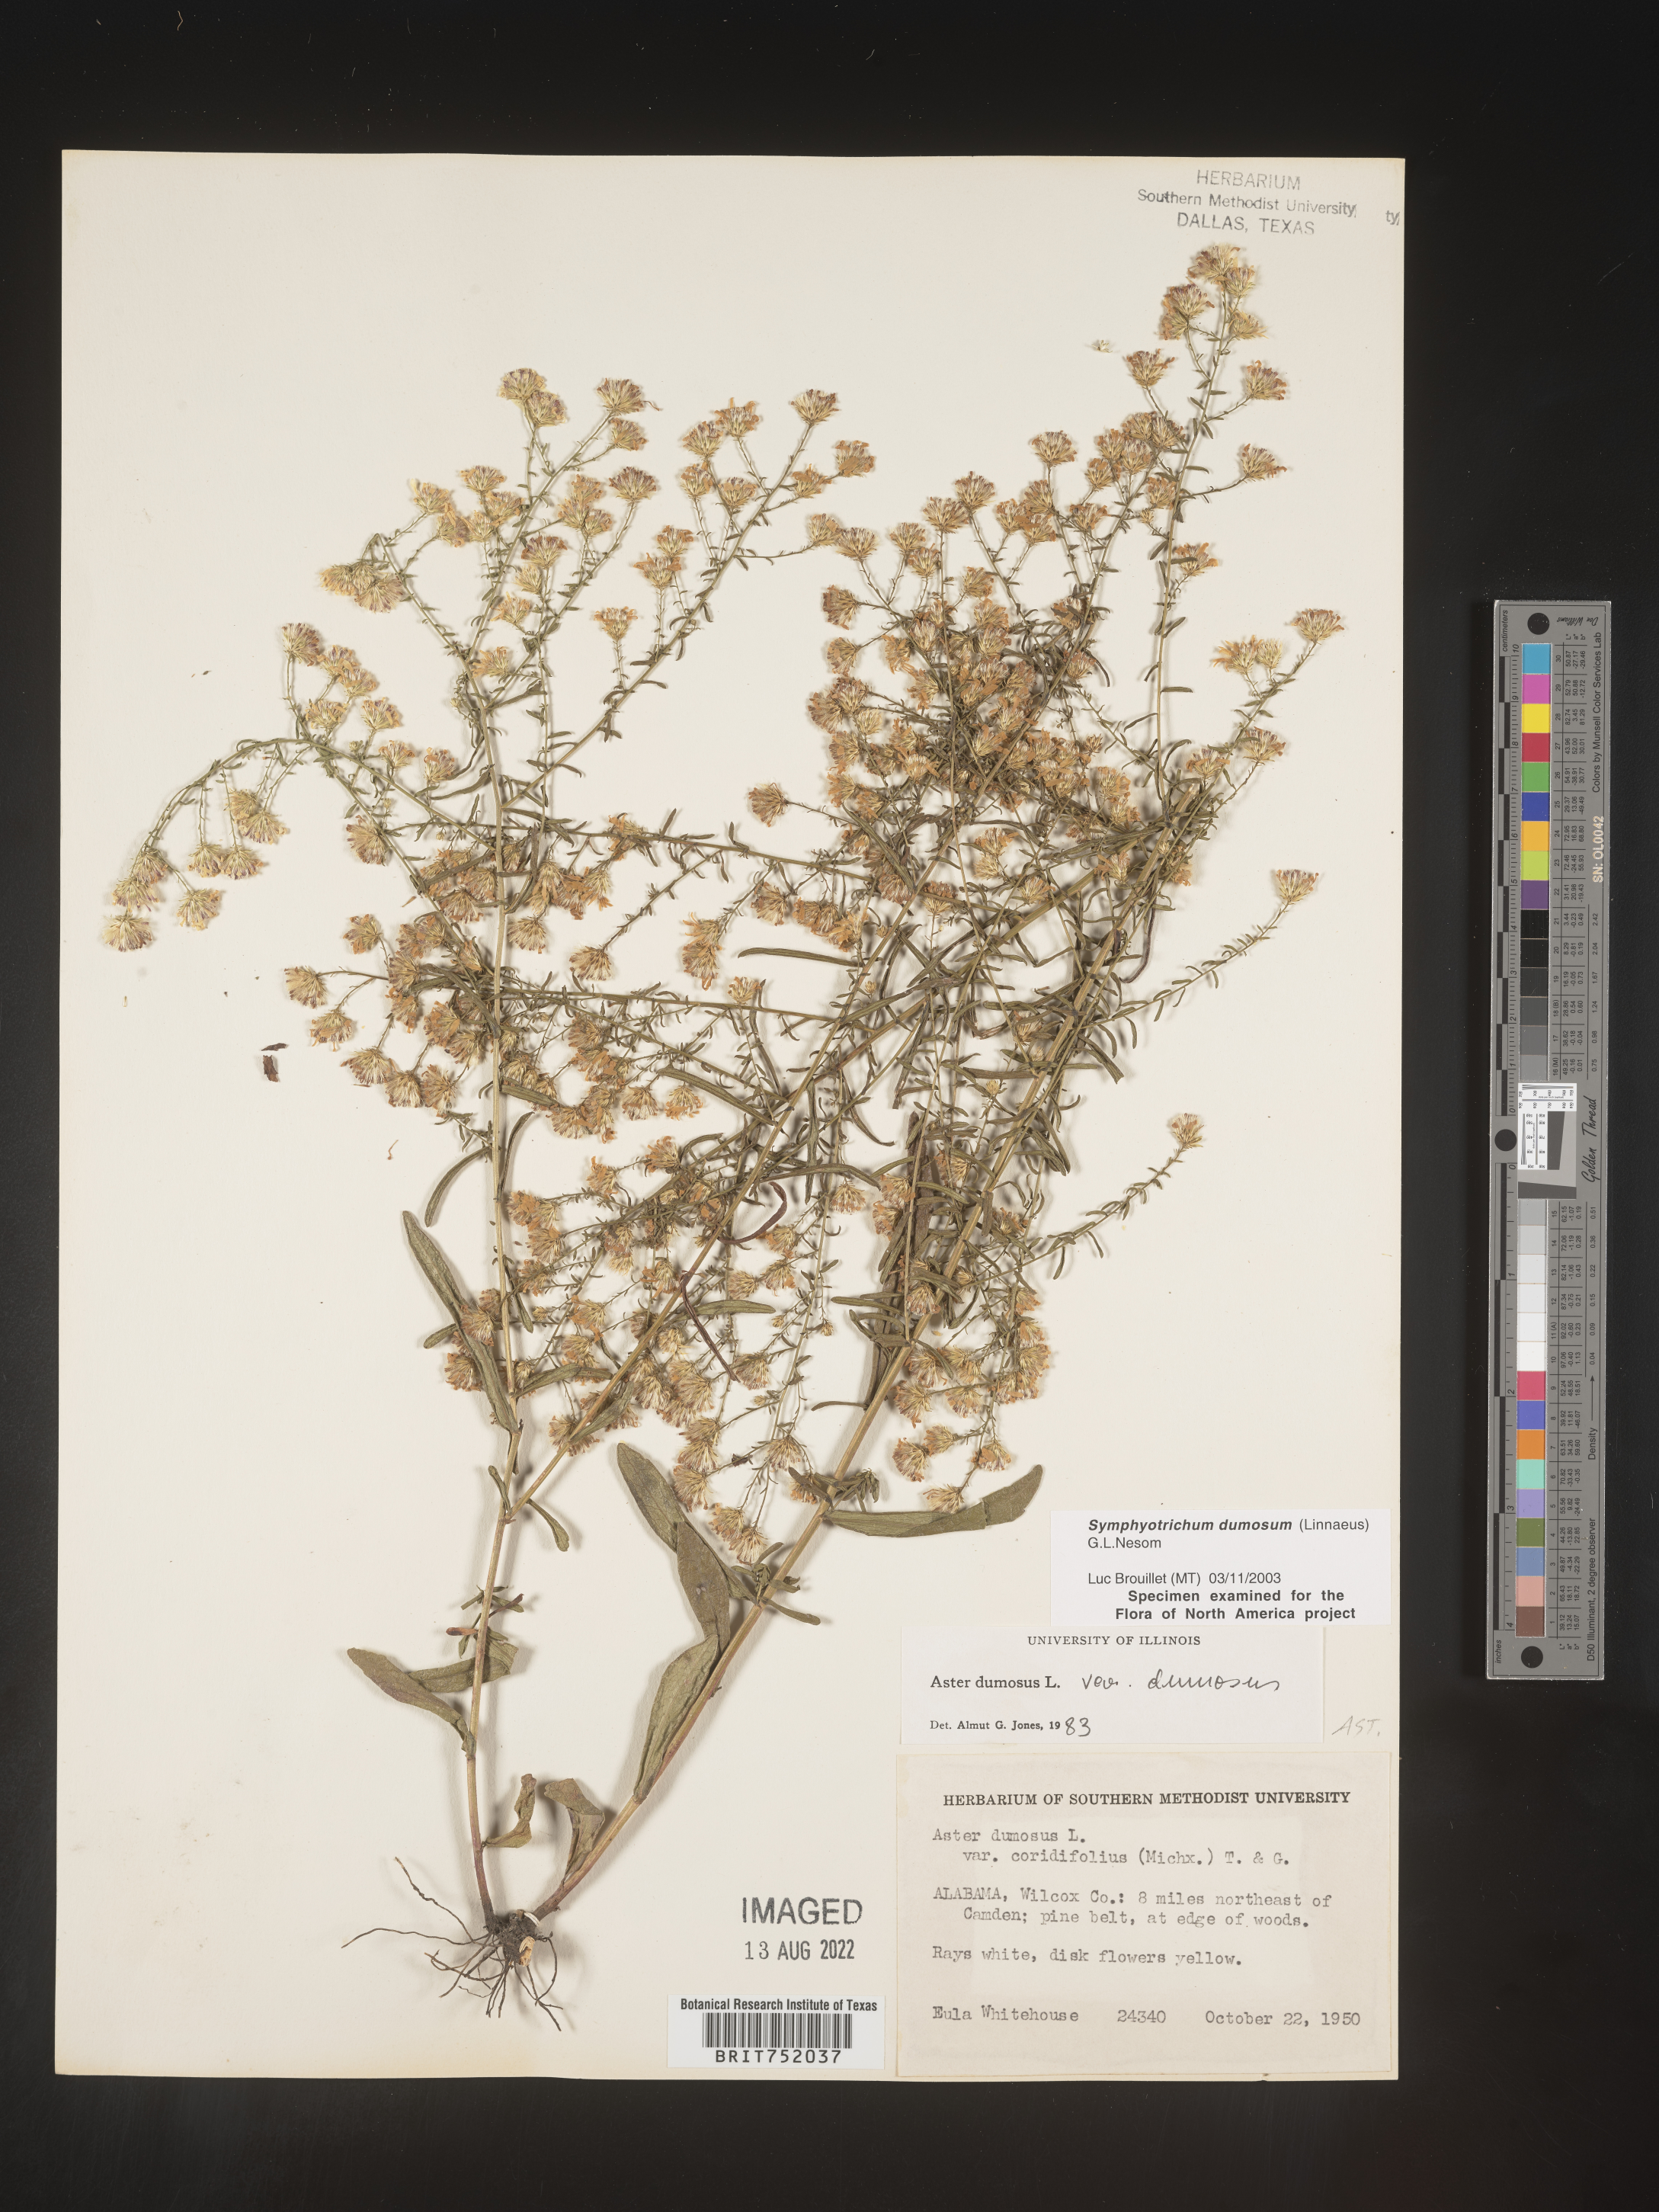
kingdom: Plantae
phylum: Tracheophyta
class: Magnoliopsida
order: Asterales
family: Asteraceae
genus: Symphyotrichum
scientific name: Symphyotrichum dumosum
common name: Bushy aster
